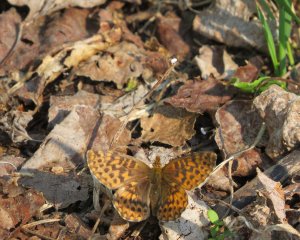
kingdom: Animalia
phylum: Arthropoda
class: Insecta
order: Lepidoptera
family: Nymphalidae
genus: Boloria
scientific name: Boloria chariclea
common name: Arctic Fritillary
